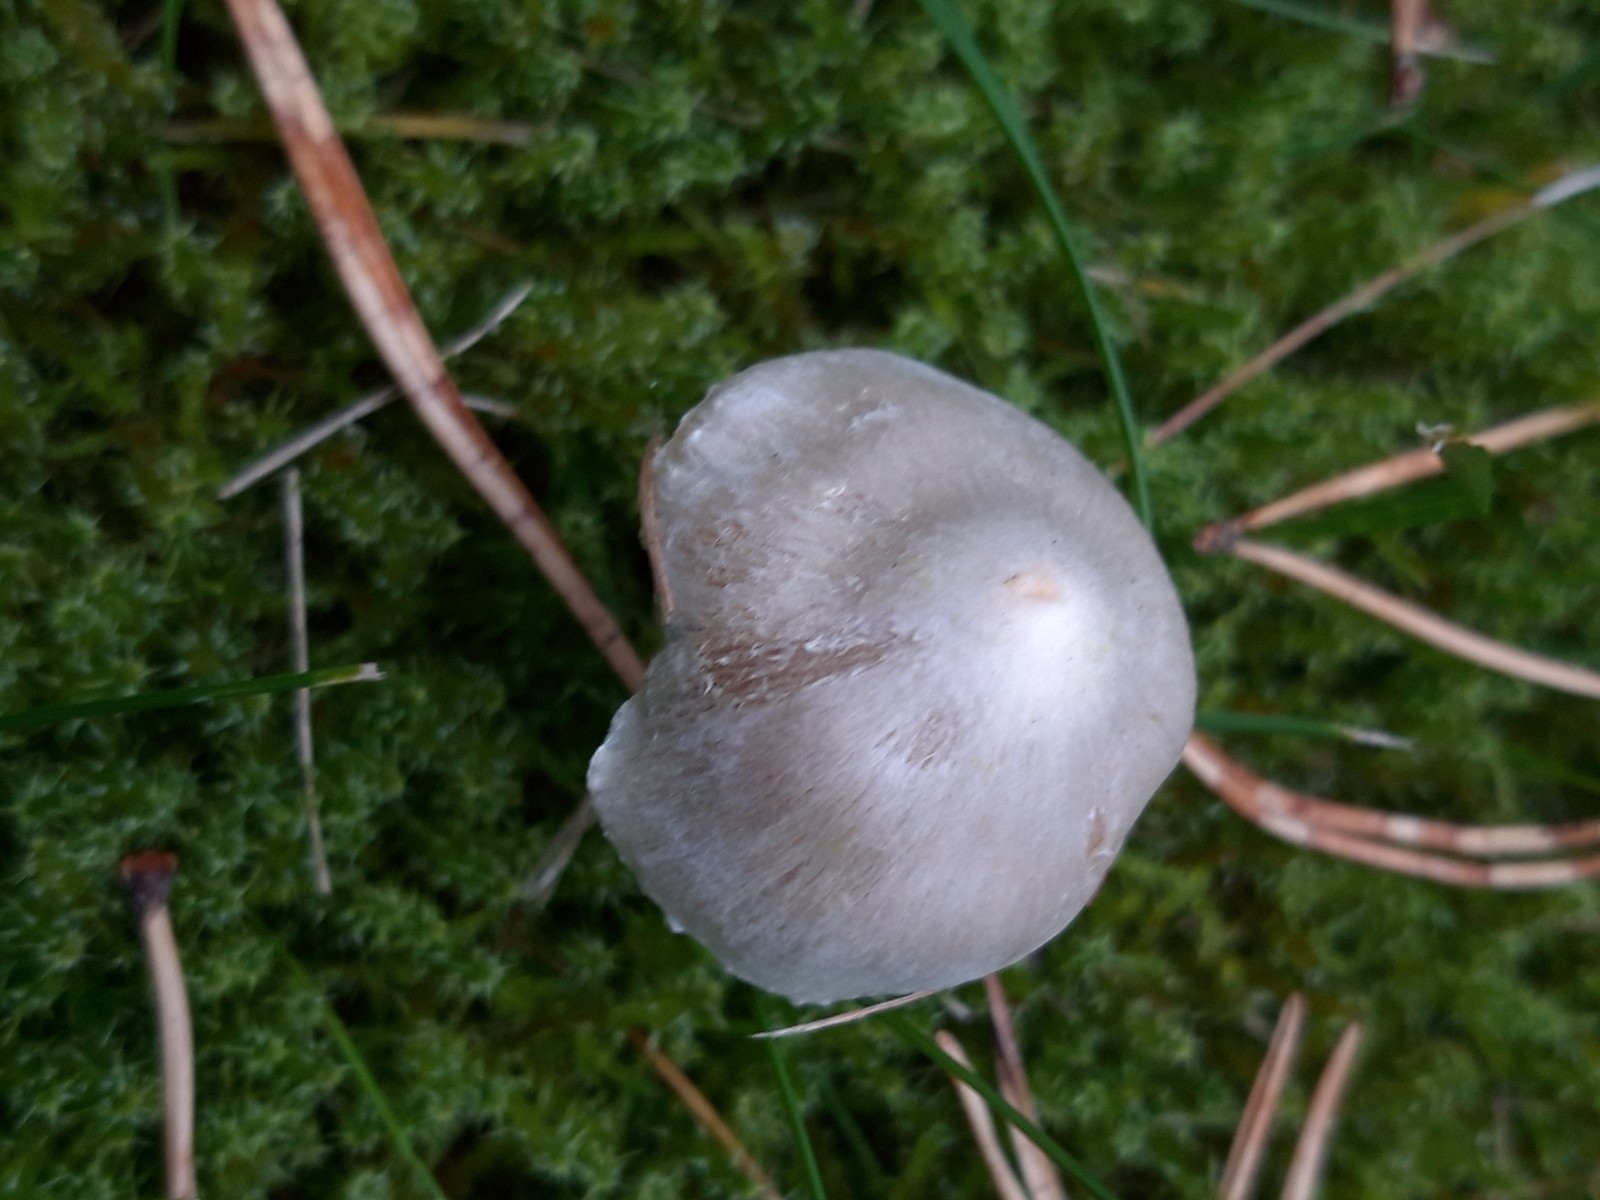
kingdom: Fungi
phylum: Basidiomycota
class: Agaricomycetes
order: Agaricales
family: Inocybaceae
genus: Inocybe
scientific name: Inocybe
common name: almindelig trævlhat
